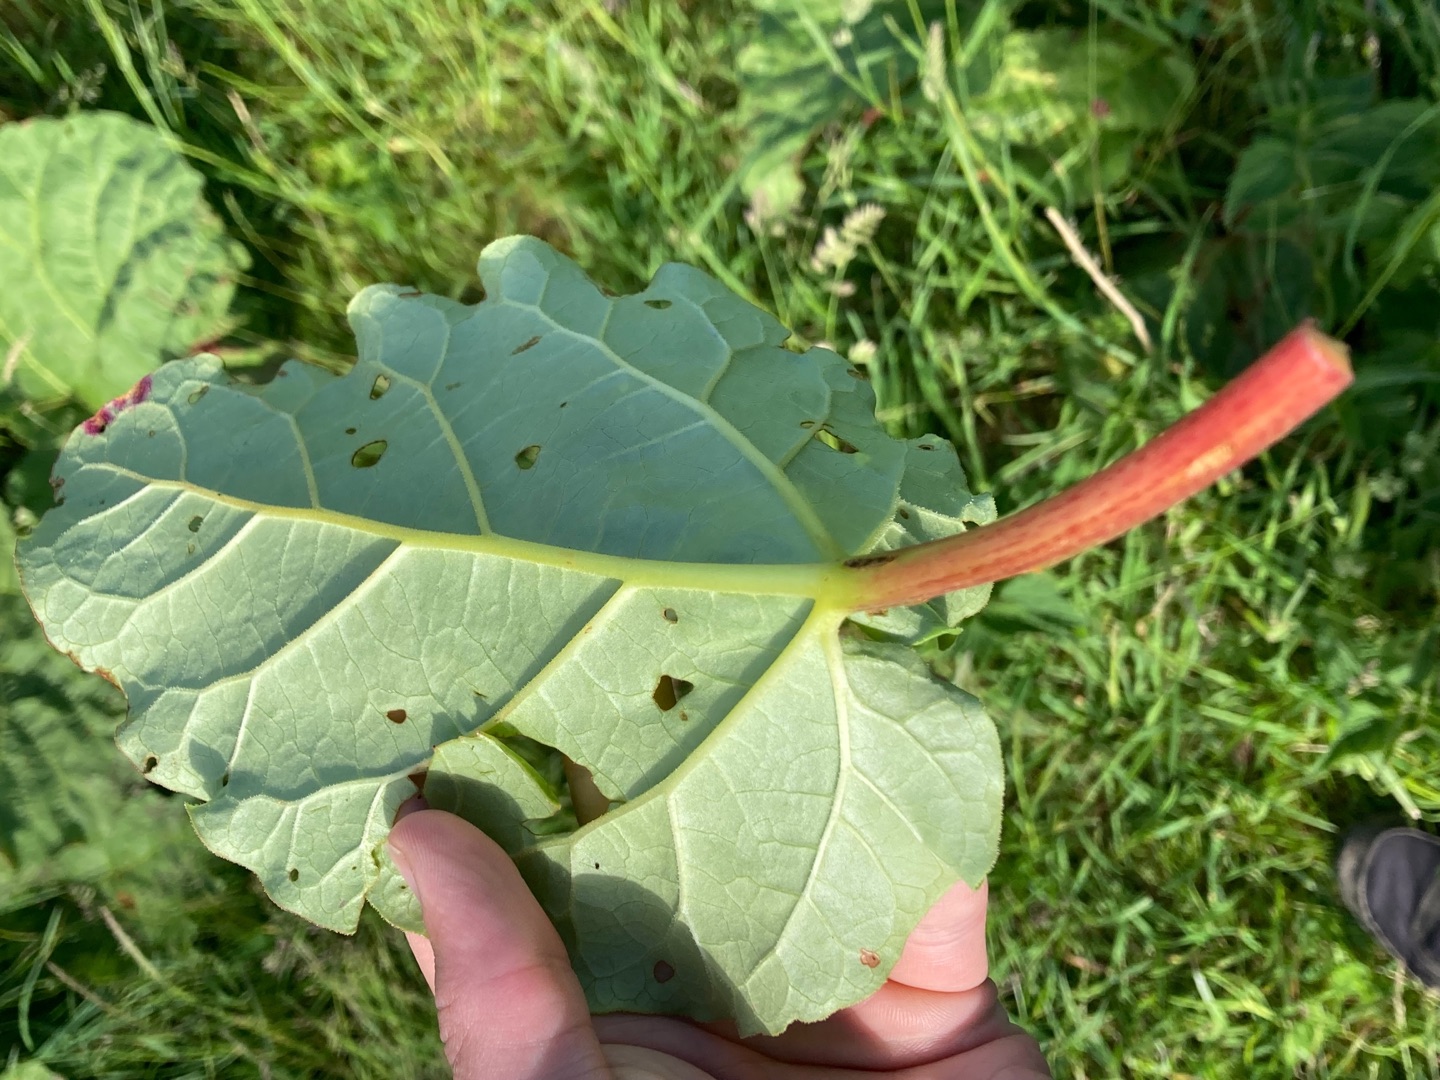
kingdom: Plantae
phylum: Tracheophyta
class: Magnoliopsida
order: Caryophyllales
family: Polygonaceae
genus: Rheum
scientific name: Rheum rhabarbarum
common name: Rabarber
